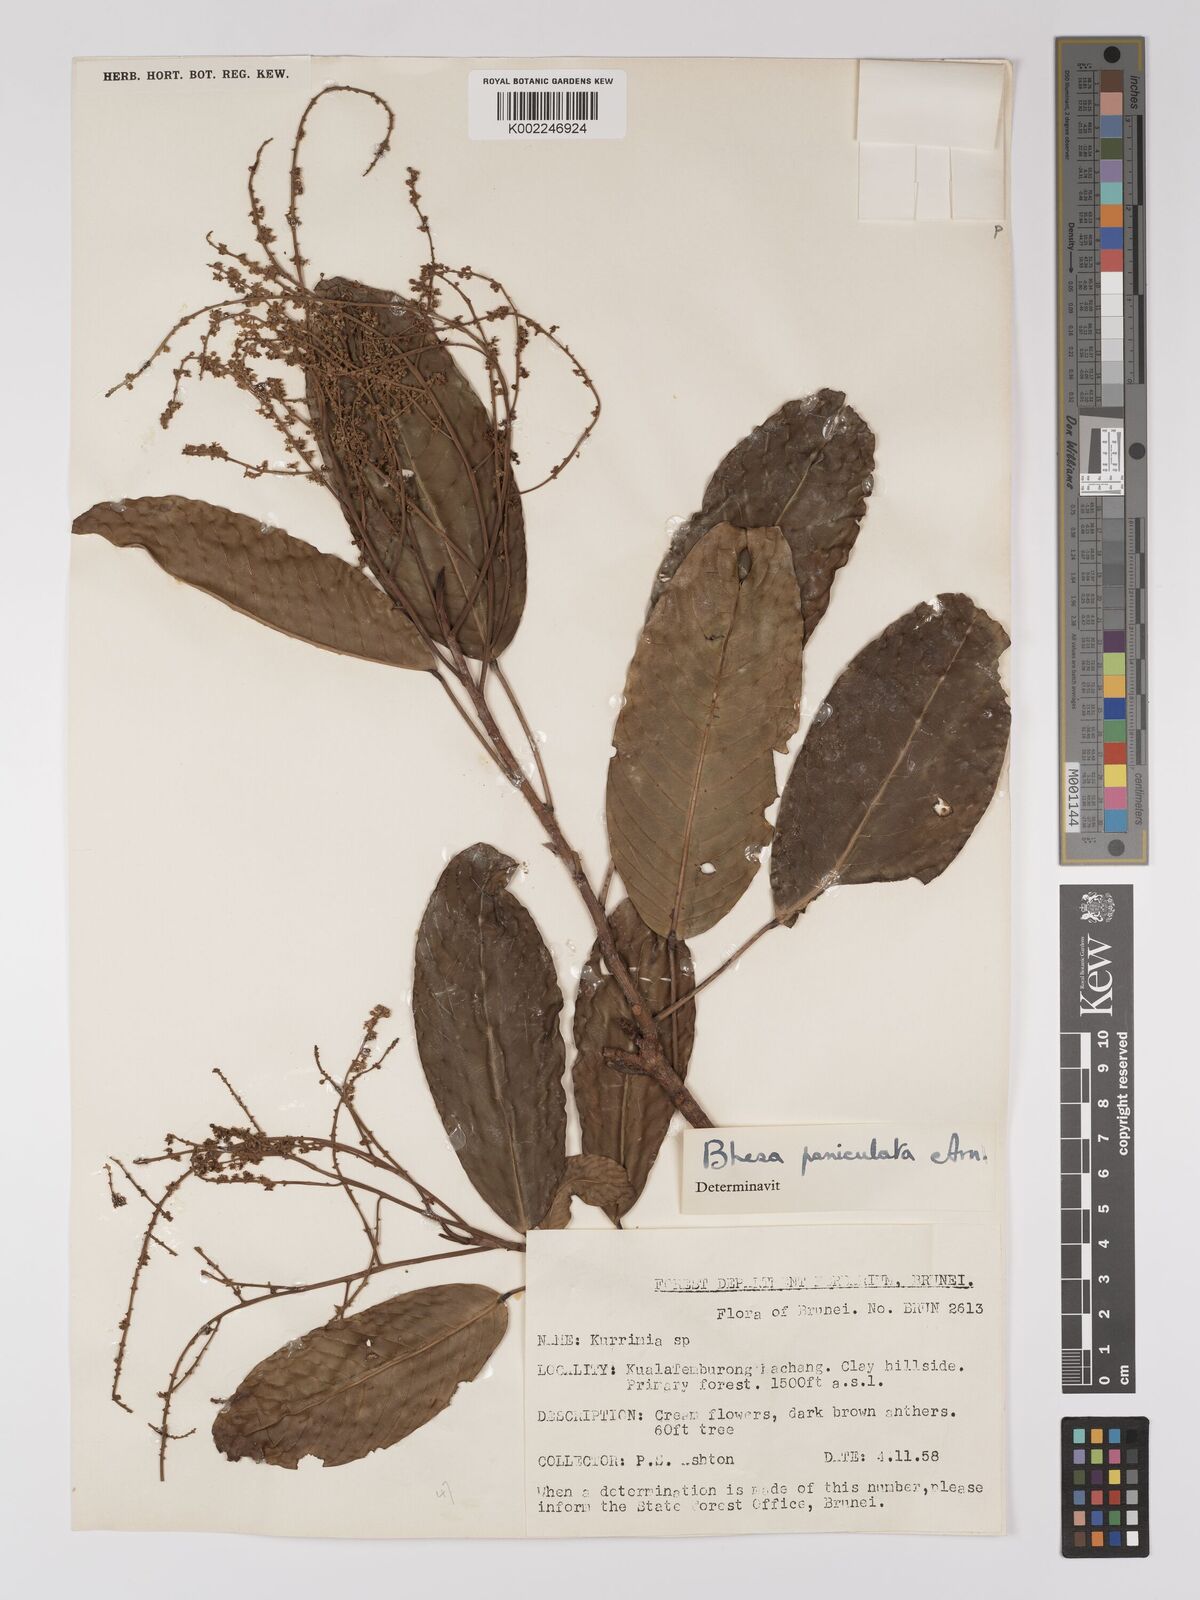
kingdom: Plantae
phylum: Tracheophyta
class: Magnoliopsida
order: Malpighiales
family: Centroplacaceae
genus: Bhesa
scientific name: Bhesa paniculata
